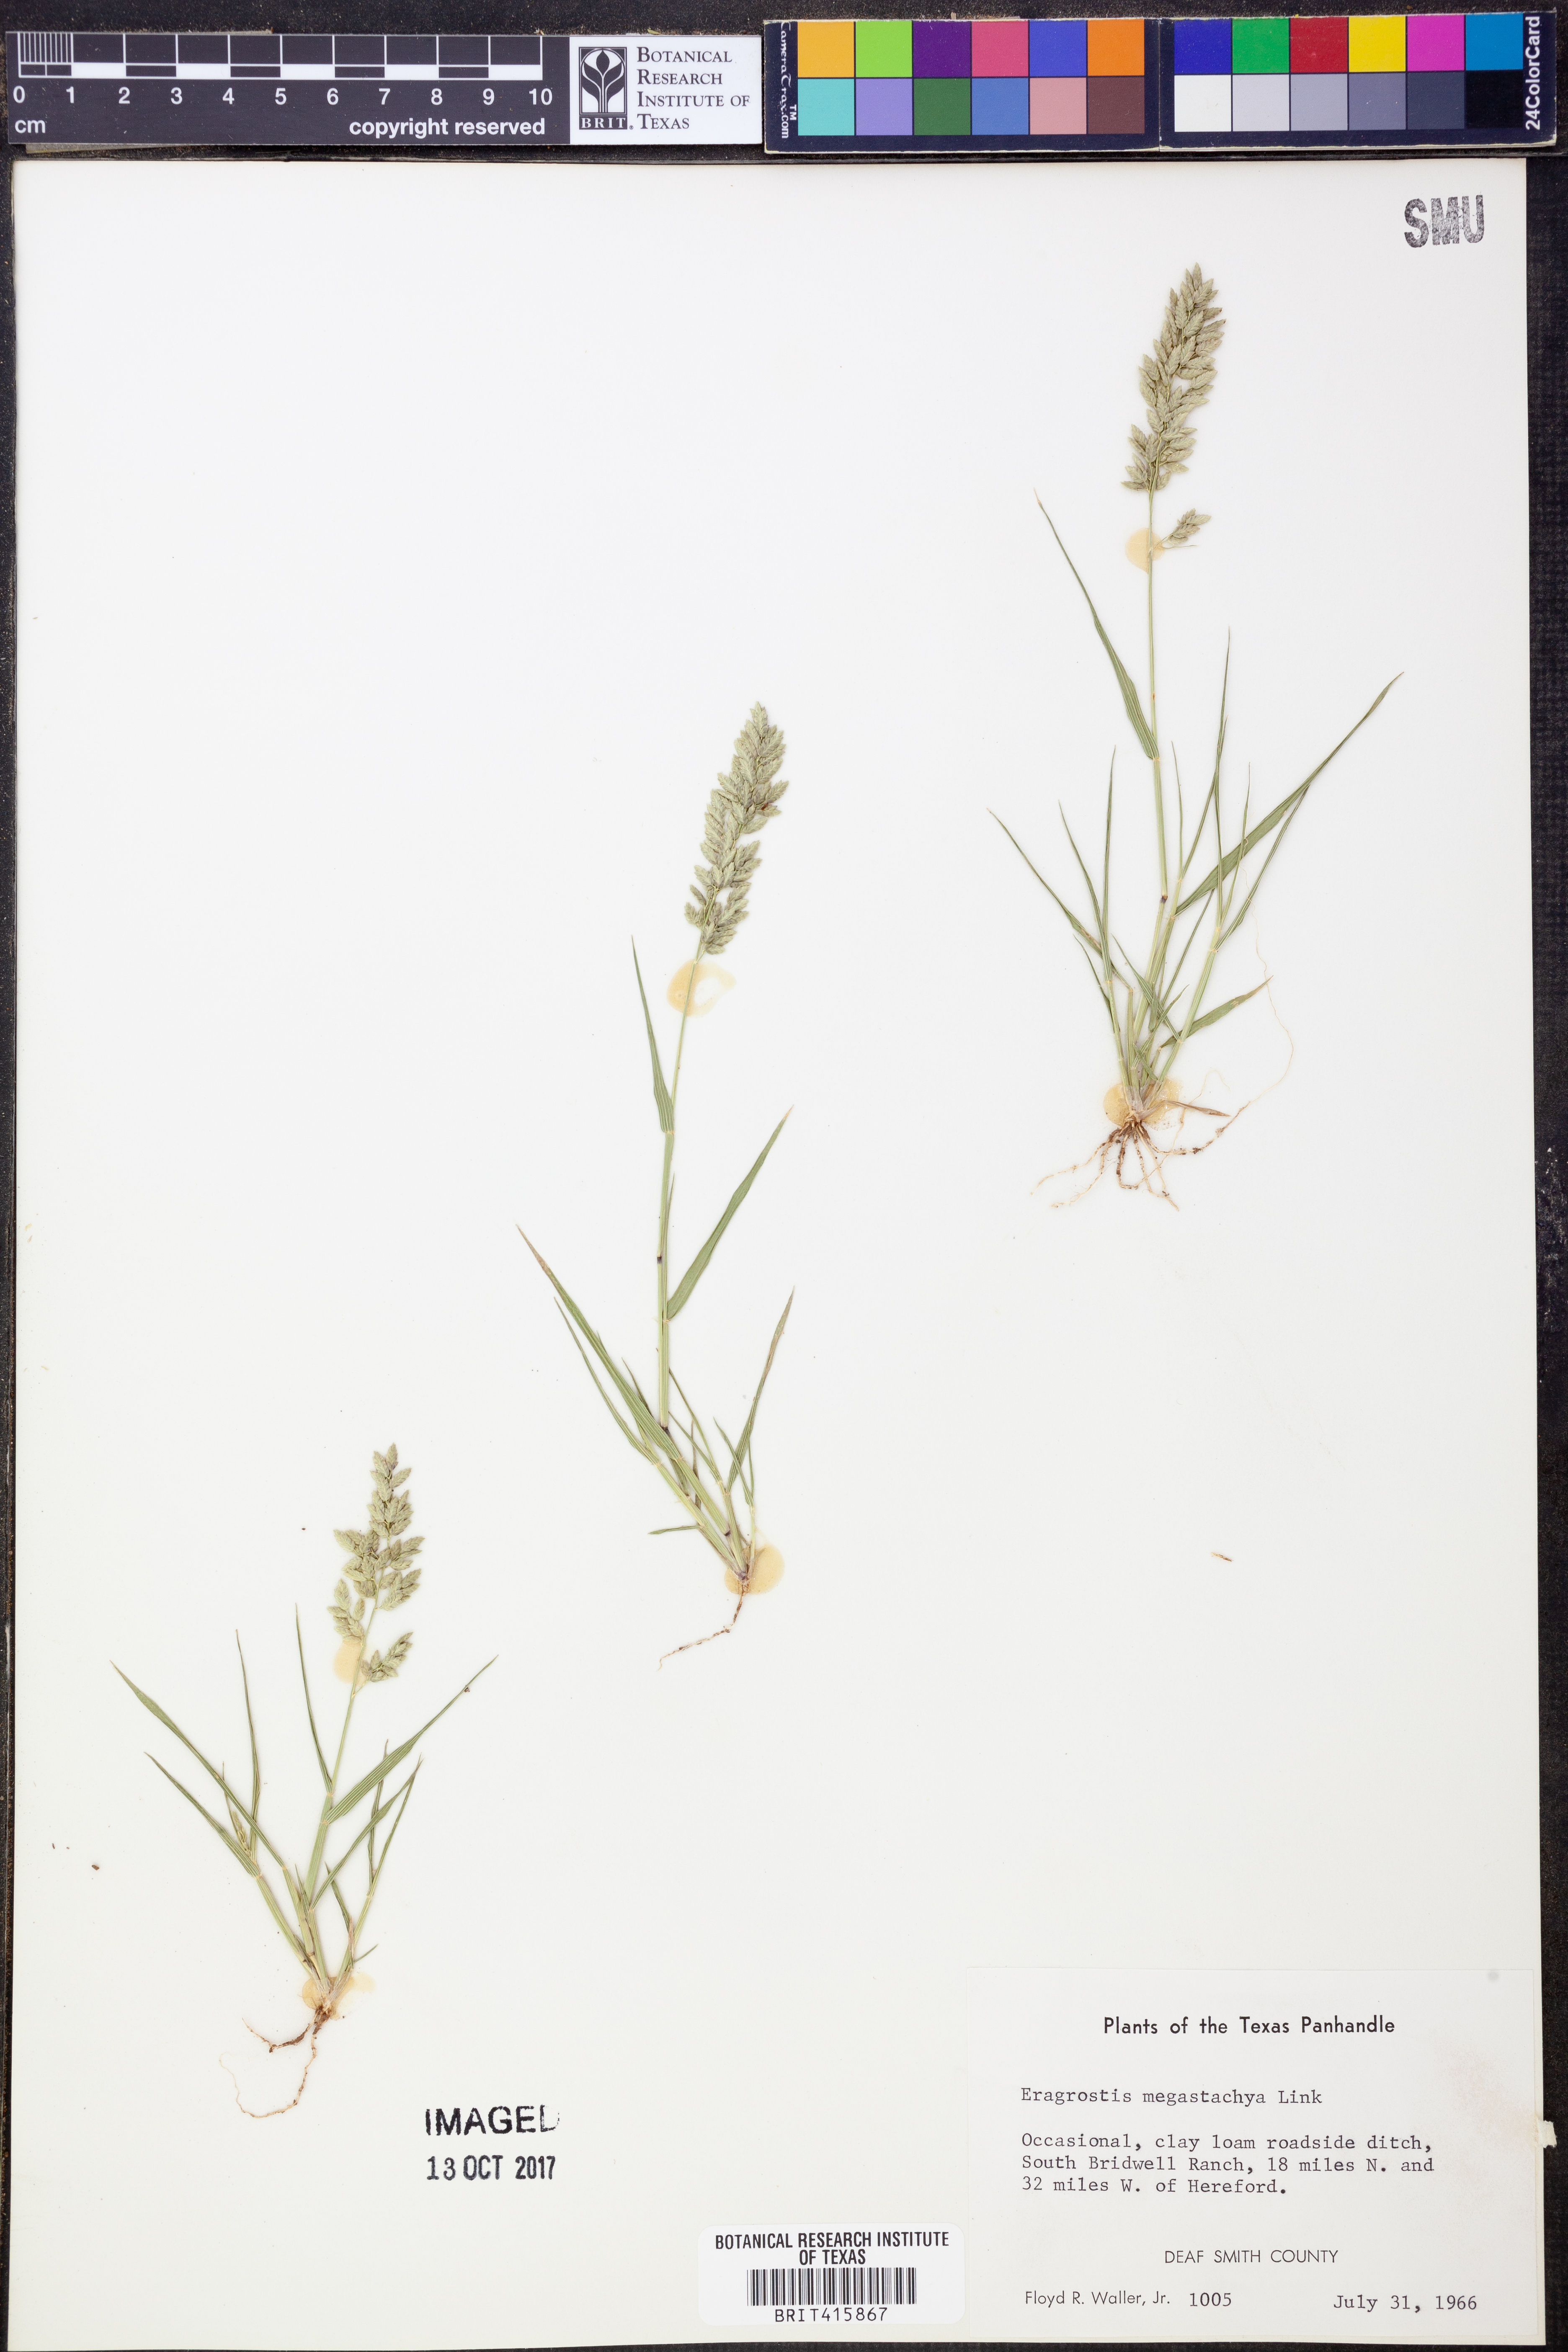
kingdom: Plantae
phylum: Tracheophyta
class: Liliopsida
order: Poales
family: Poaceae
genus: Eragrostis
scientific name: Eragrostis cilianensis
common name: Stinkgrass
